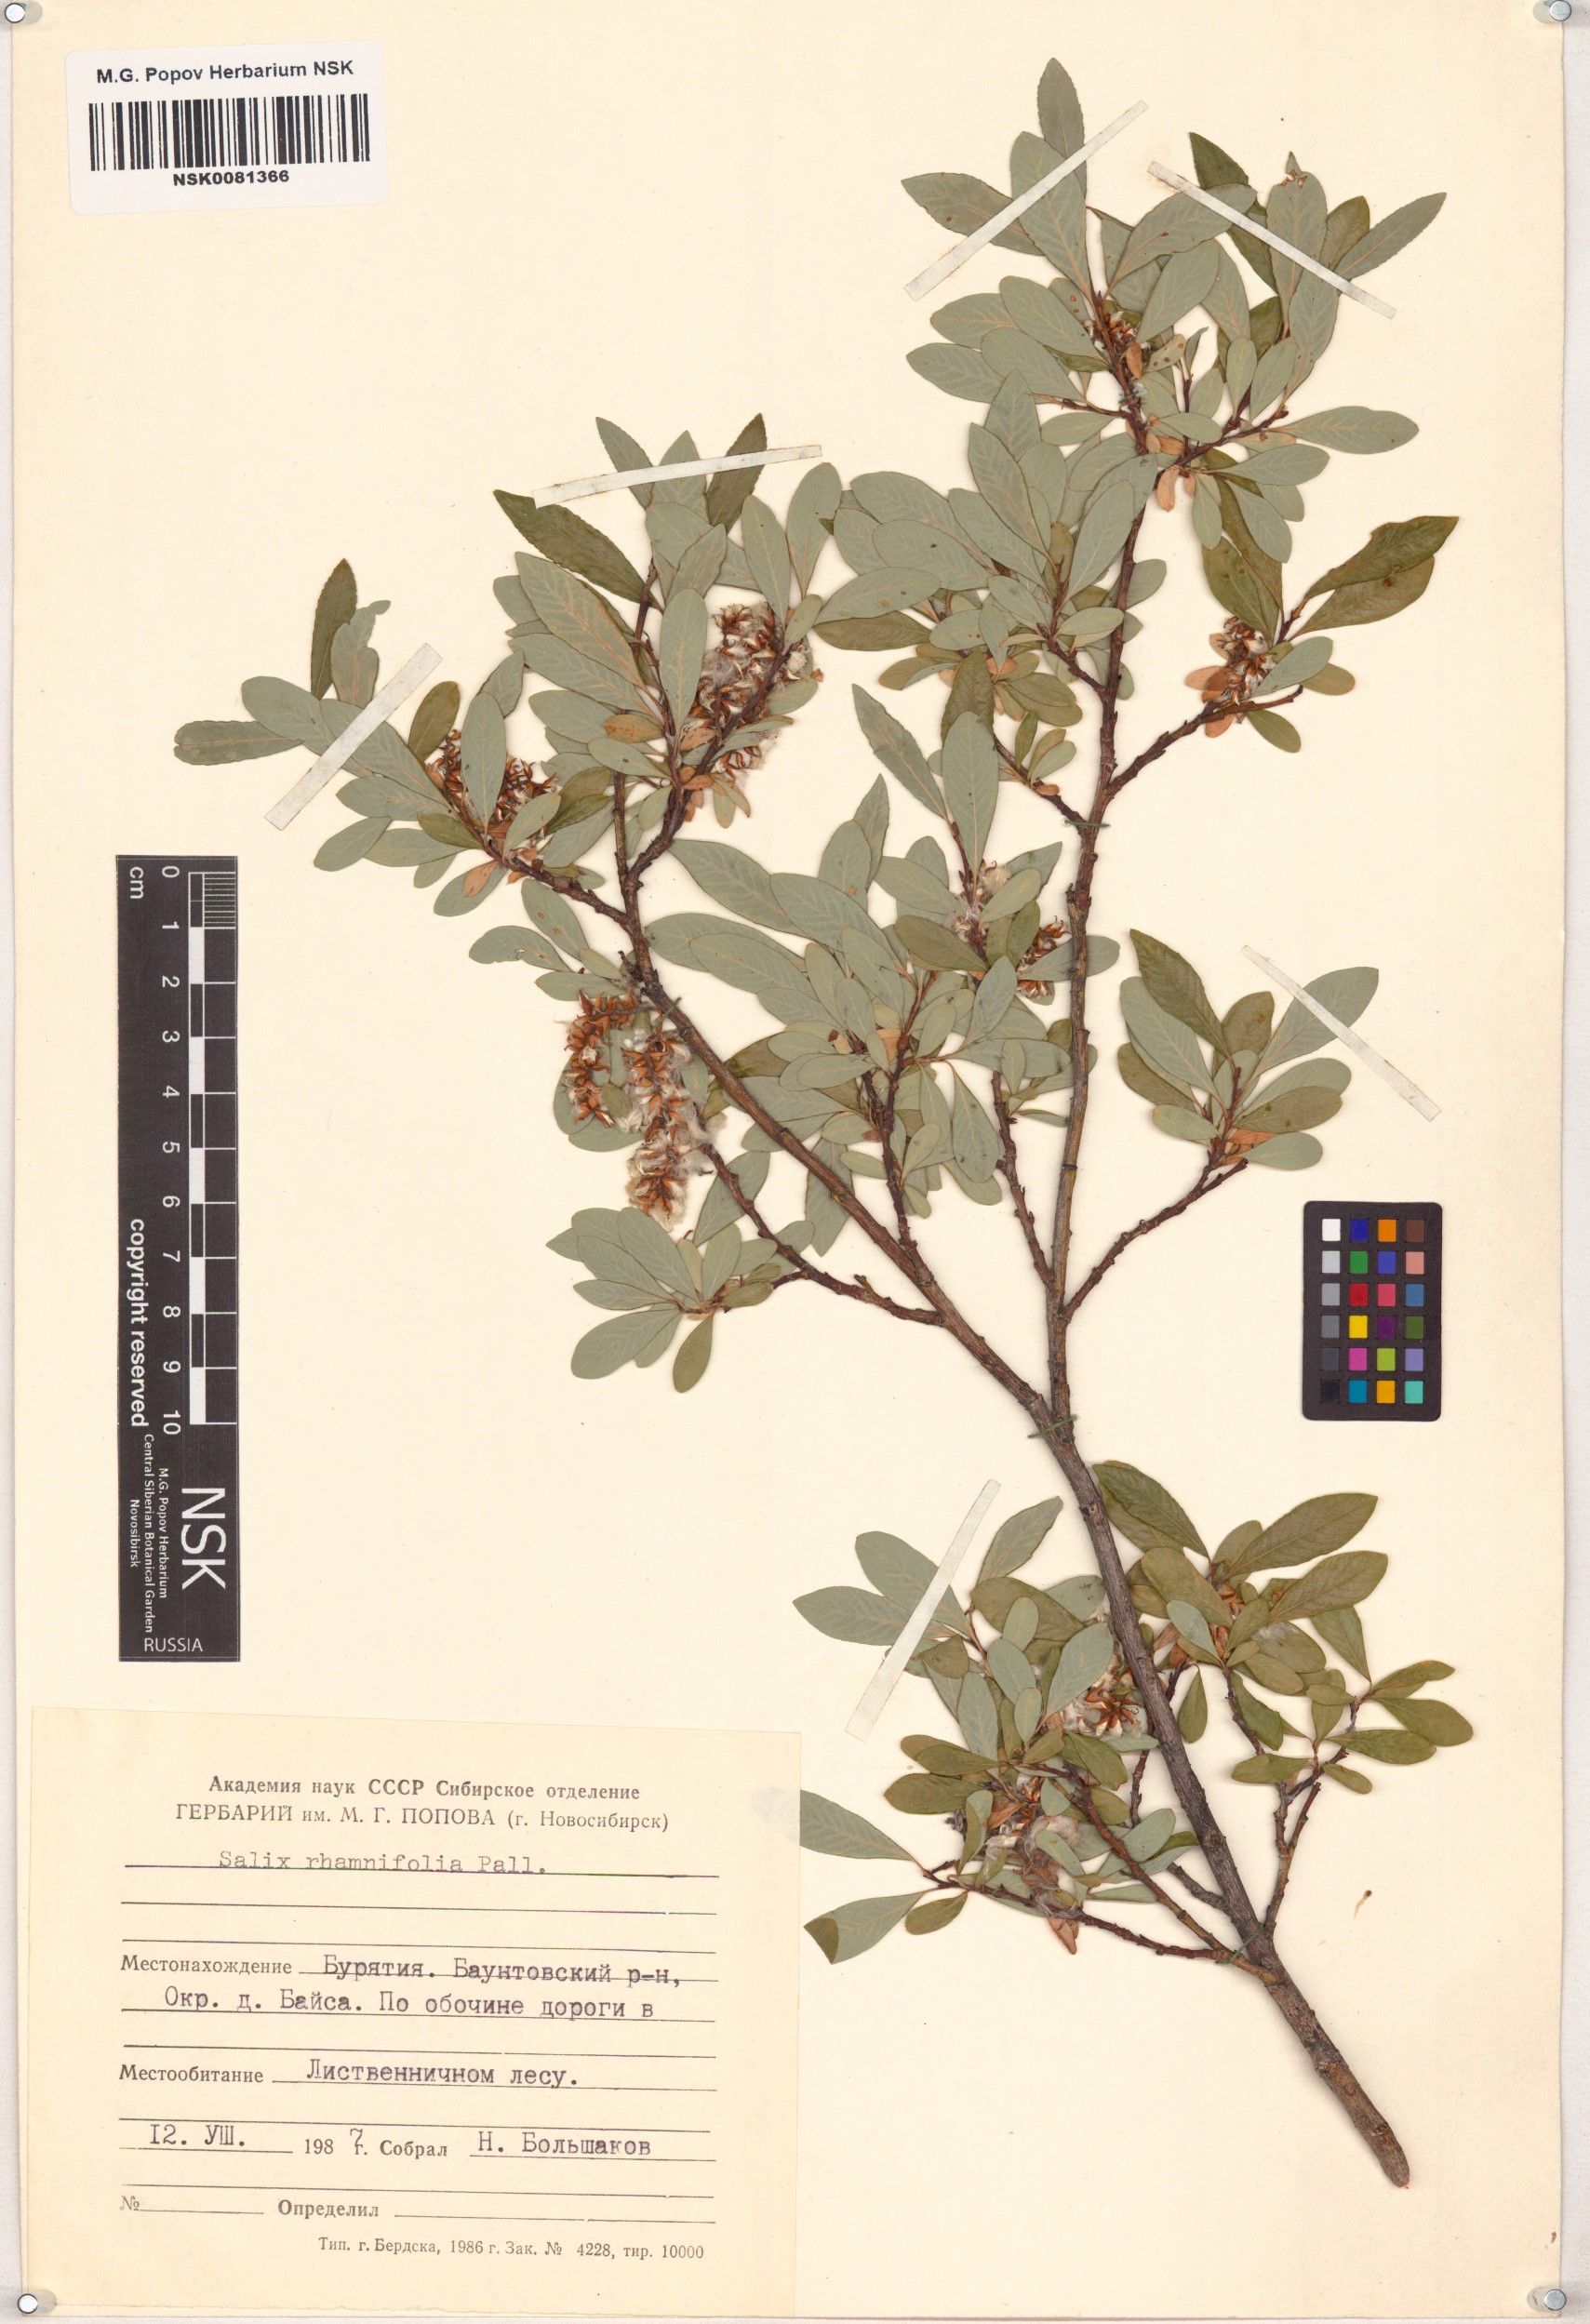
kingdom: Plantae
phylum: Tracheophyta
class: Magnoliopsida
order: Malpighiales
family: Salicaceae
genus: Salix
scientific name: Salix rhamnifolia
